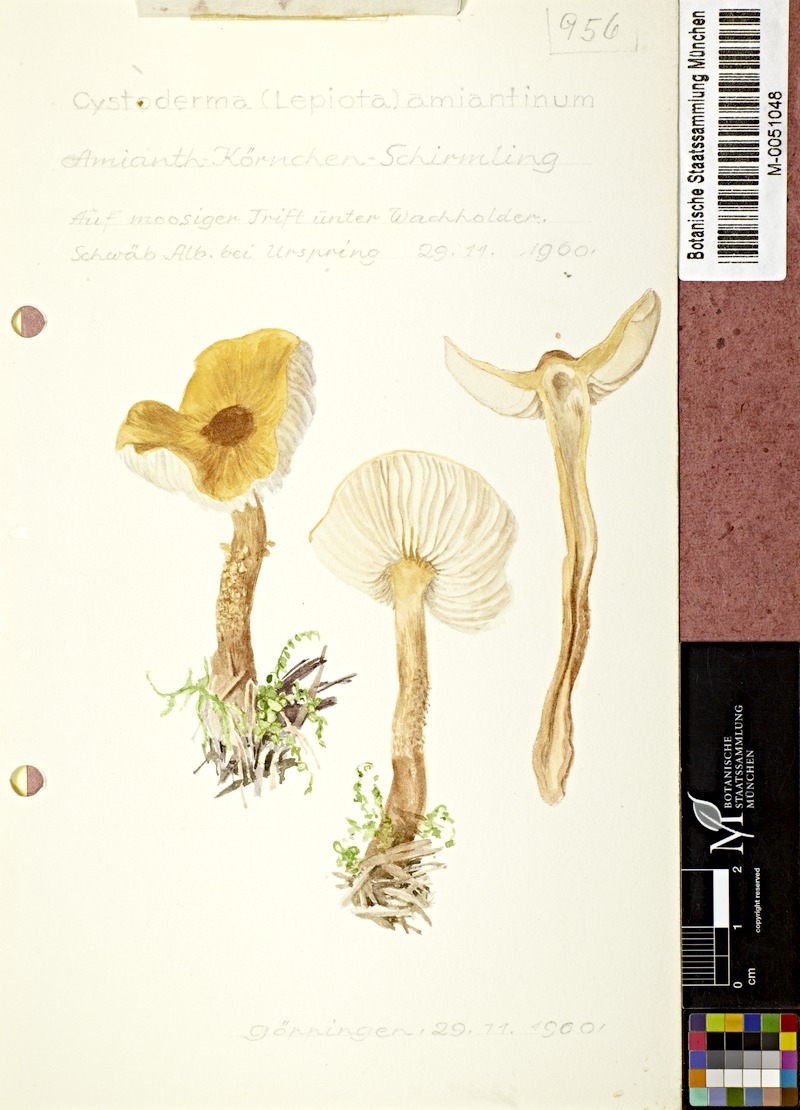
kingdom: Fungi
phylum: Basidiomycota
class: Agaricomycetes
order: Agaricales
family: Tricholomataceae
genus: Cystoderma
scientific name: Cystoderma amianthinum
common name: Earthy powdercap
